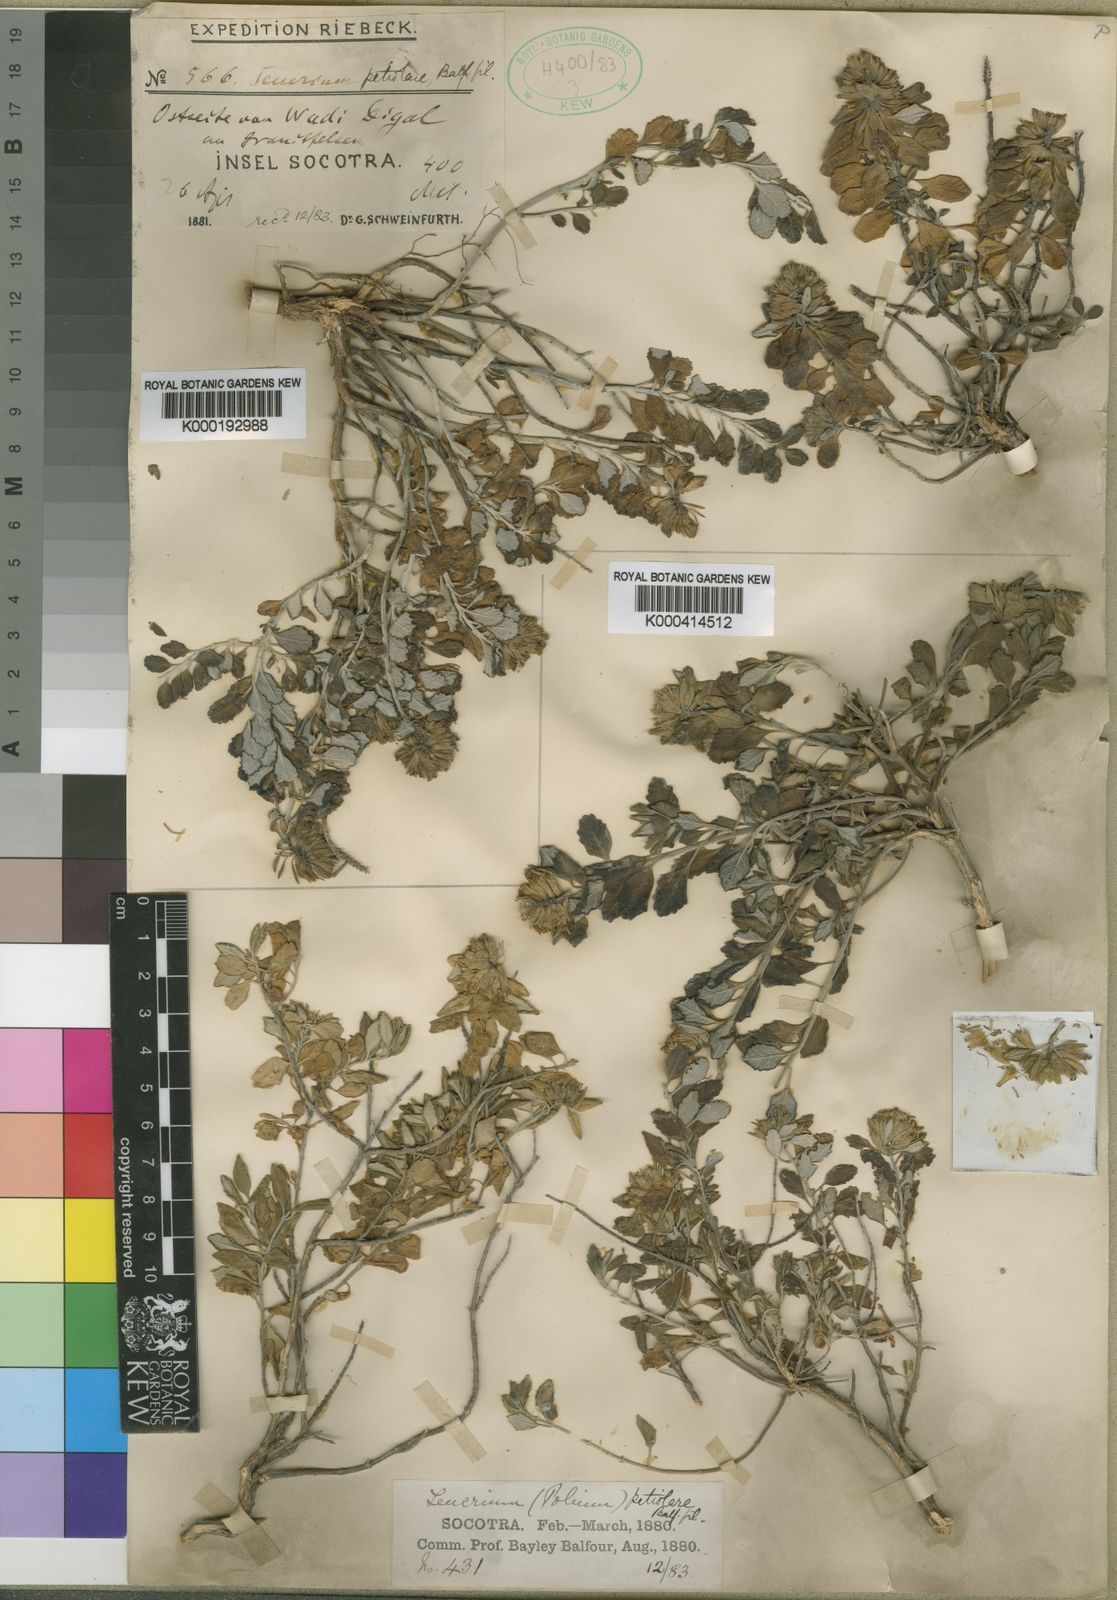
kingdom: Plantae
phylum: Tracheophyta
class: Magnoliopsida
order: Lamiales
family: Lamiaceae
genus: Teucrium
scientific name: Teucrium polium
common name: Poley
